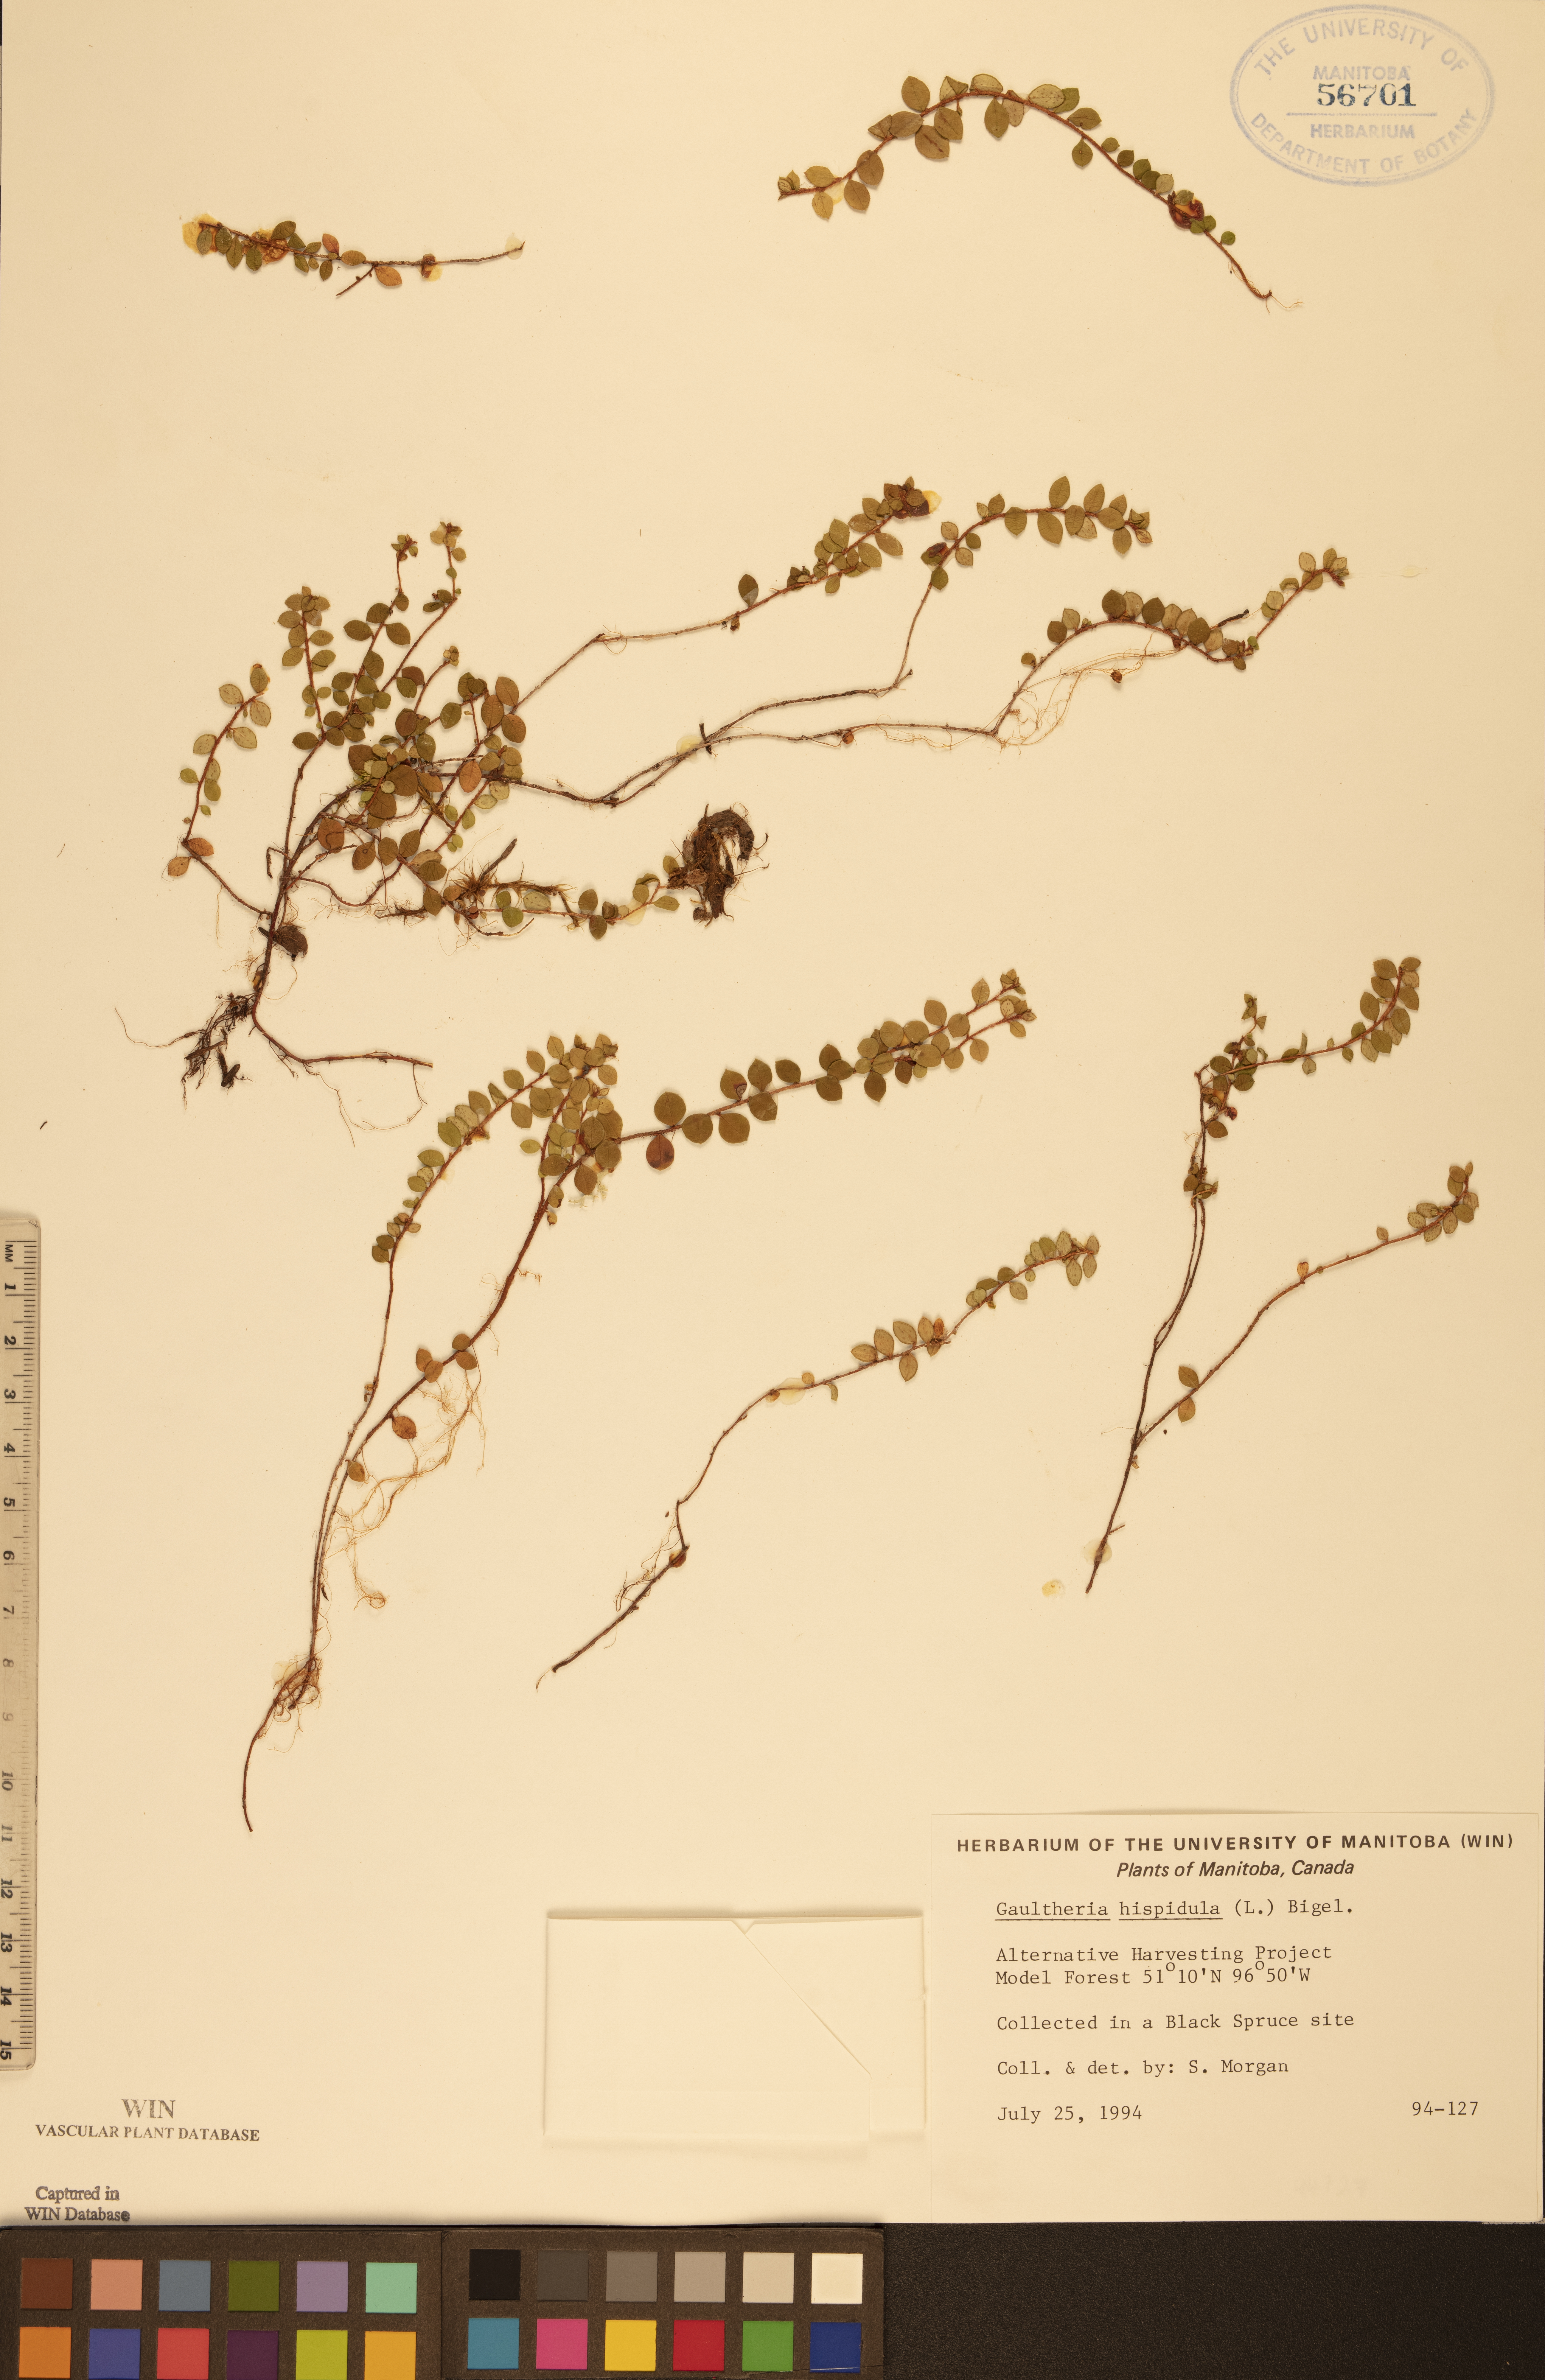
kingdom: Plantae
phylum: Tracheophyta
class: Magnoliopsida
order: Ericales
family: Ericaceae
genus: Gaultheria
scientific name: Gaultheria hispidula
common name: Cancer wintergreen
